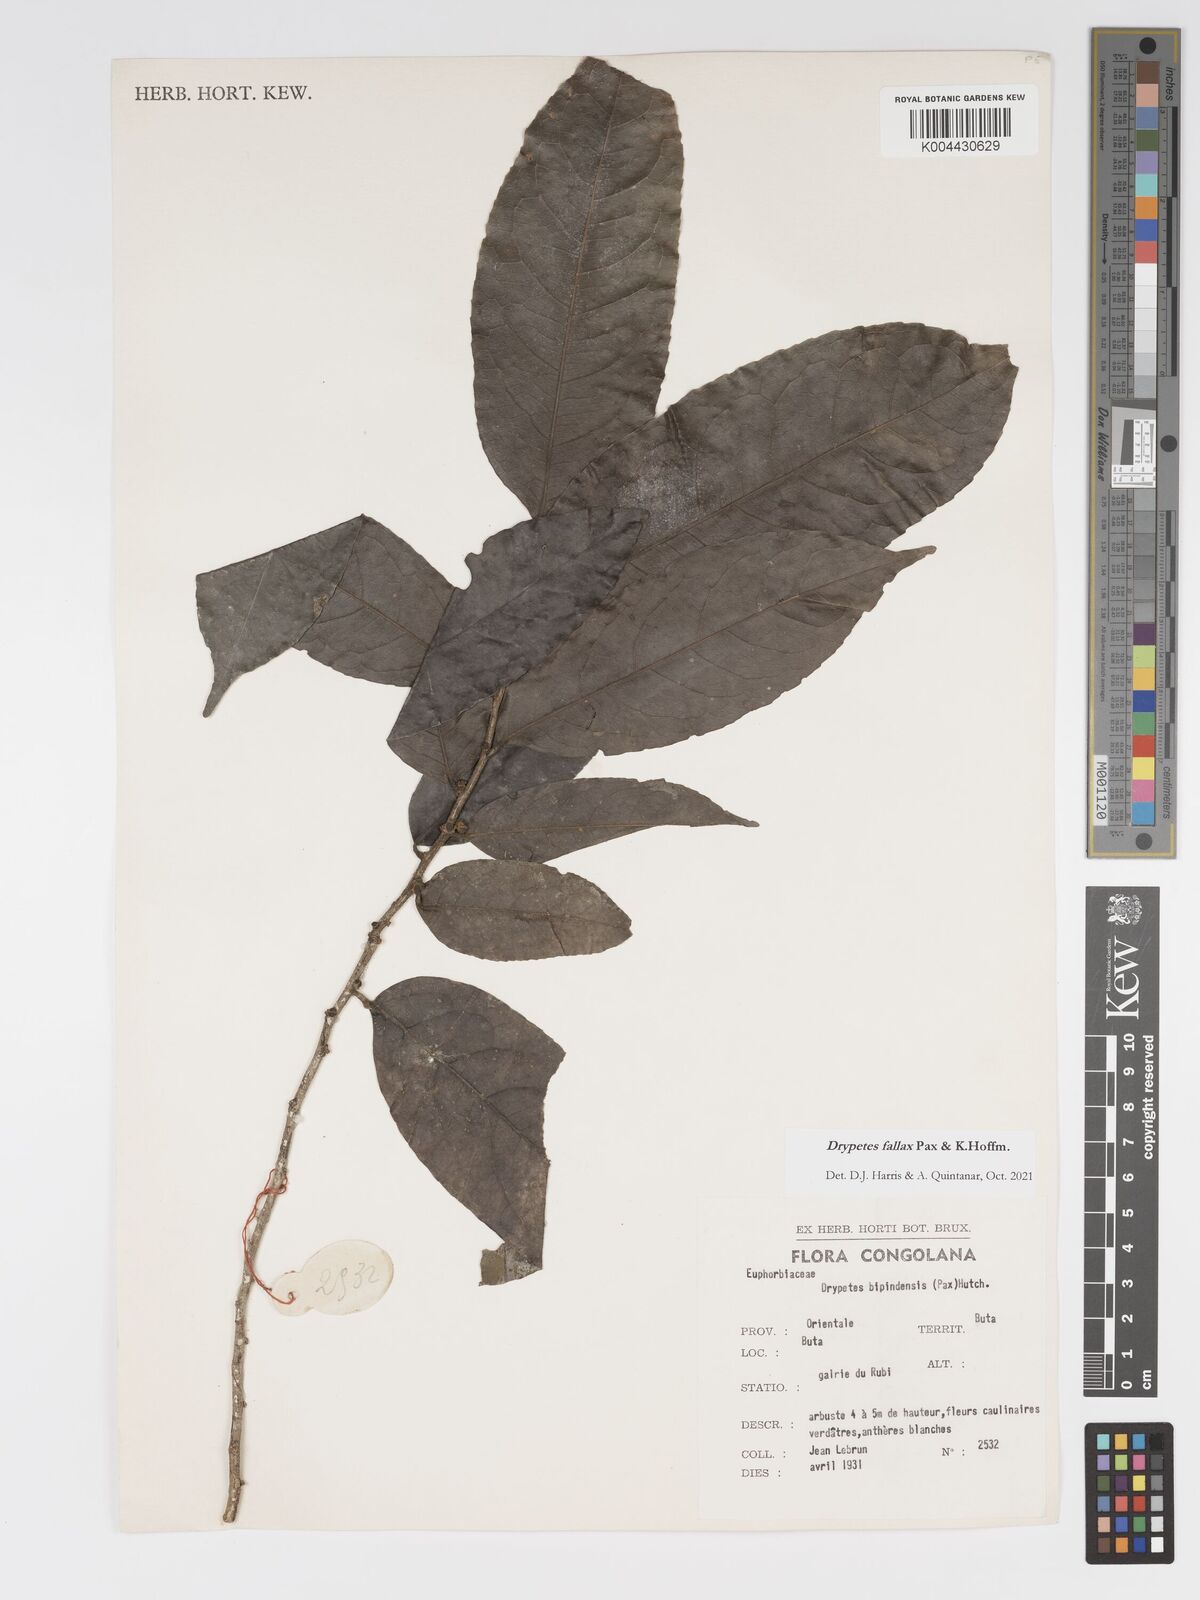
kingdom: Plantae
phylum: Tracheophyta
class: Magnoliopsida
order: Malpighiales
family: Putranjivaceae
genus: Drypetes
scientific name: Drypetes fallax
